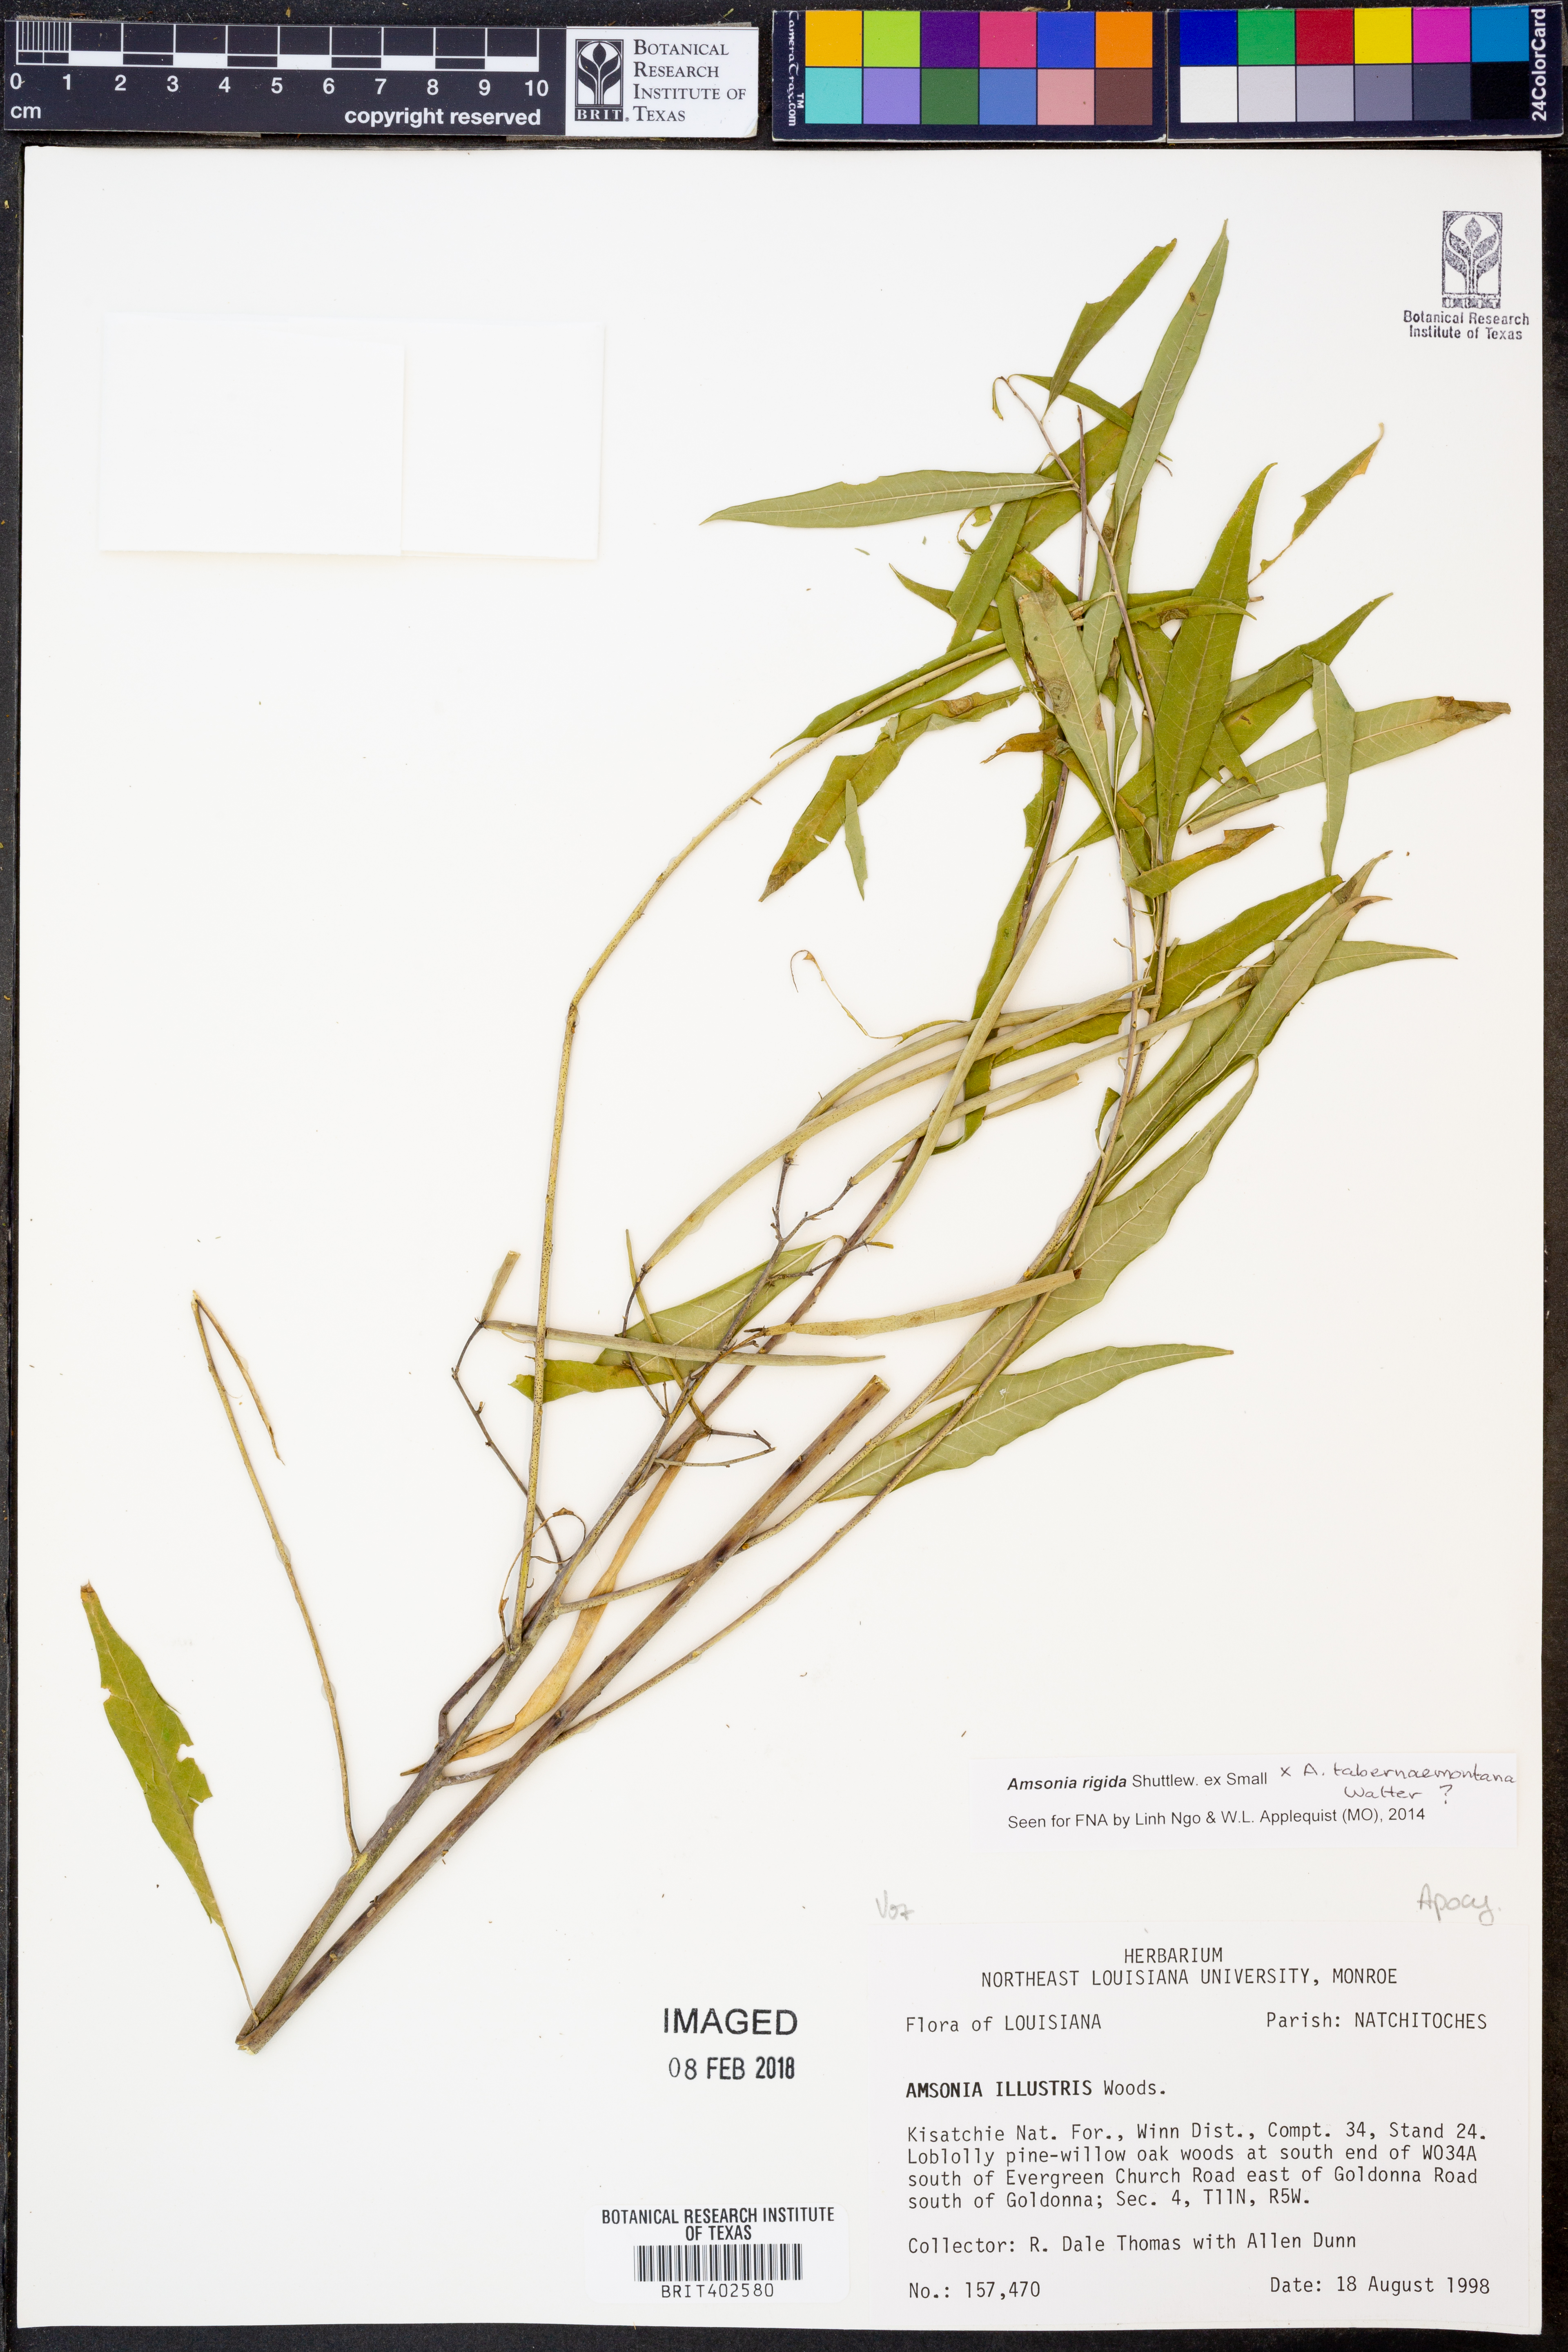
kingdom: Plantae
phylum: Tracheophyta
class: Magnoliopsida
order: Gentianales
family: Apocynaceae
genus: Amsonia
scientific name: Amsonia tabernaemontana
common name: Texas-star
